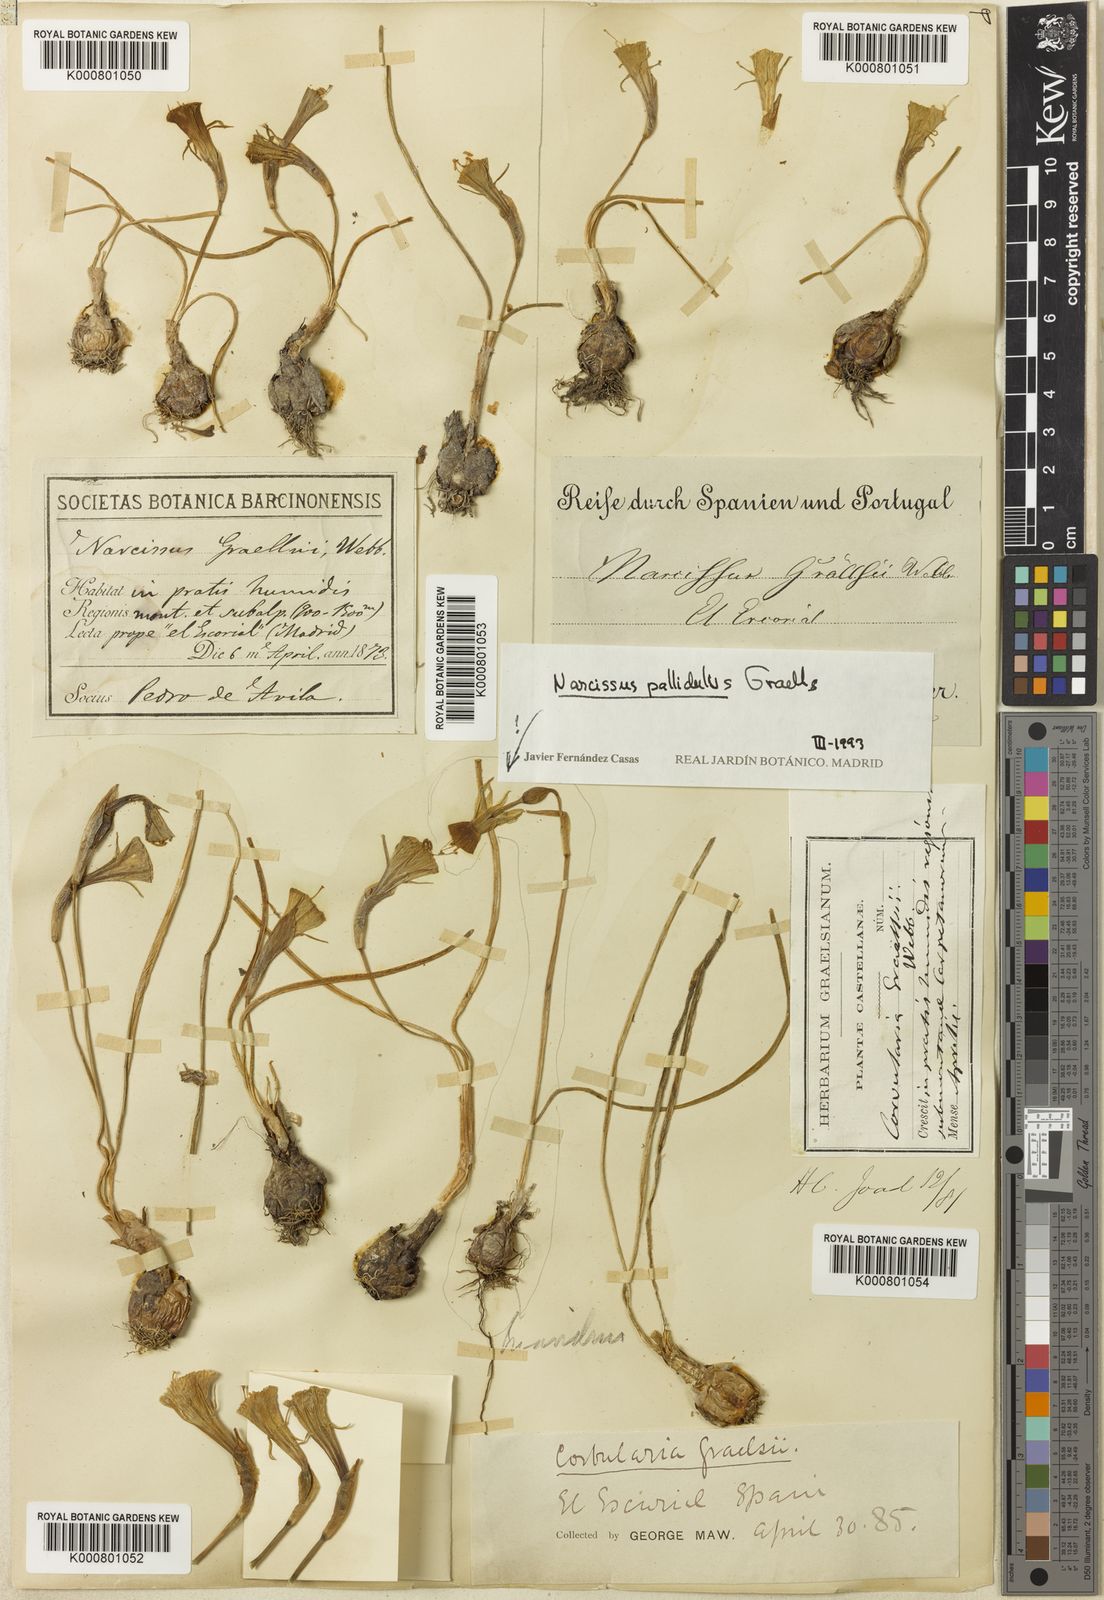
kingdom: Plantae
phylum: Tracheophyta
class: Liliopsida
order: Asparagales
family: Amaryllidaceae
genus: Narcissus
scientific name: Narcissus bulbocodium
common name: Hoop-petticoat daffodil
